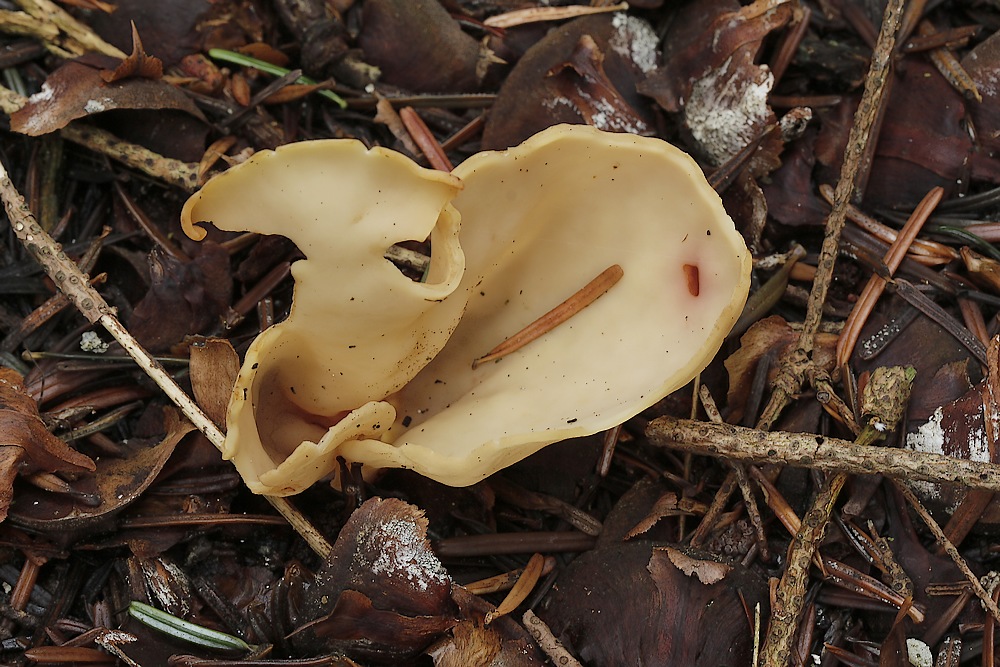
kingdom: Fungi
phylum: Ascomycota
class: Pezizomycetes
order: Pezizales
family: Otideaceae
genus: Otidea
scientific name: Otidea onotica
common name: æsel-ørebæger
